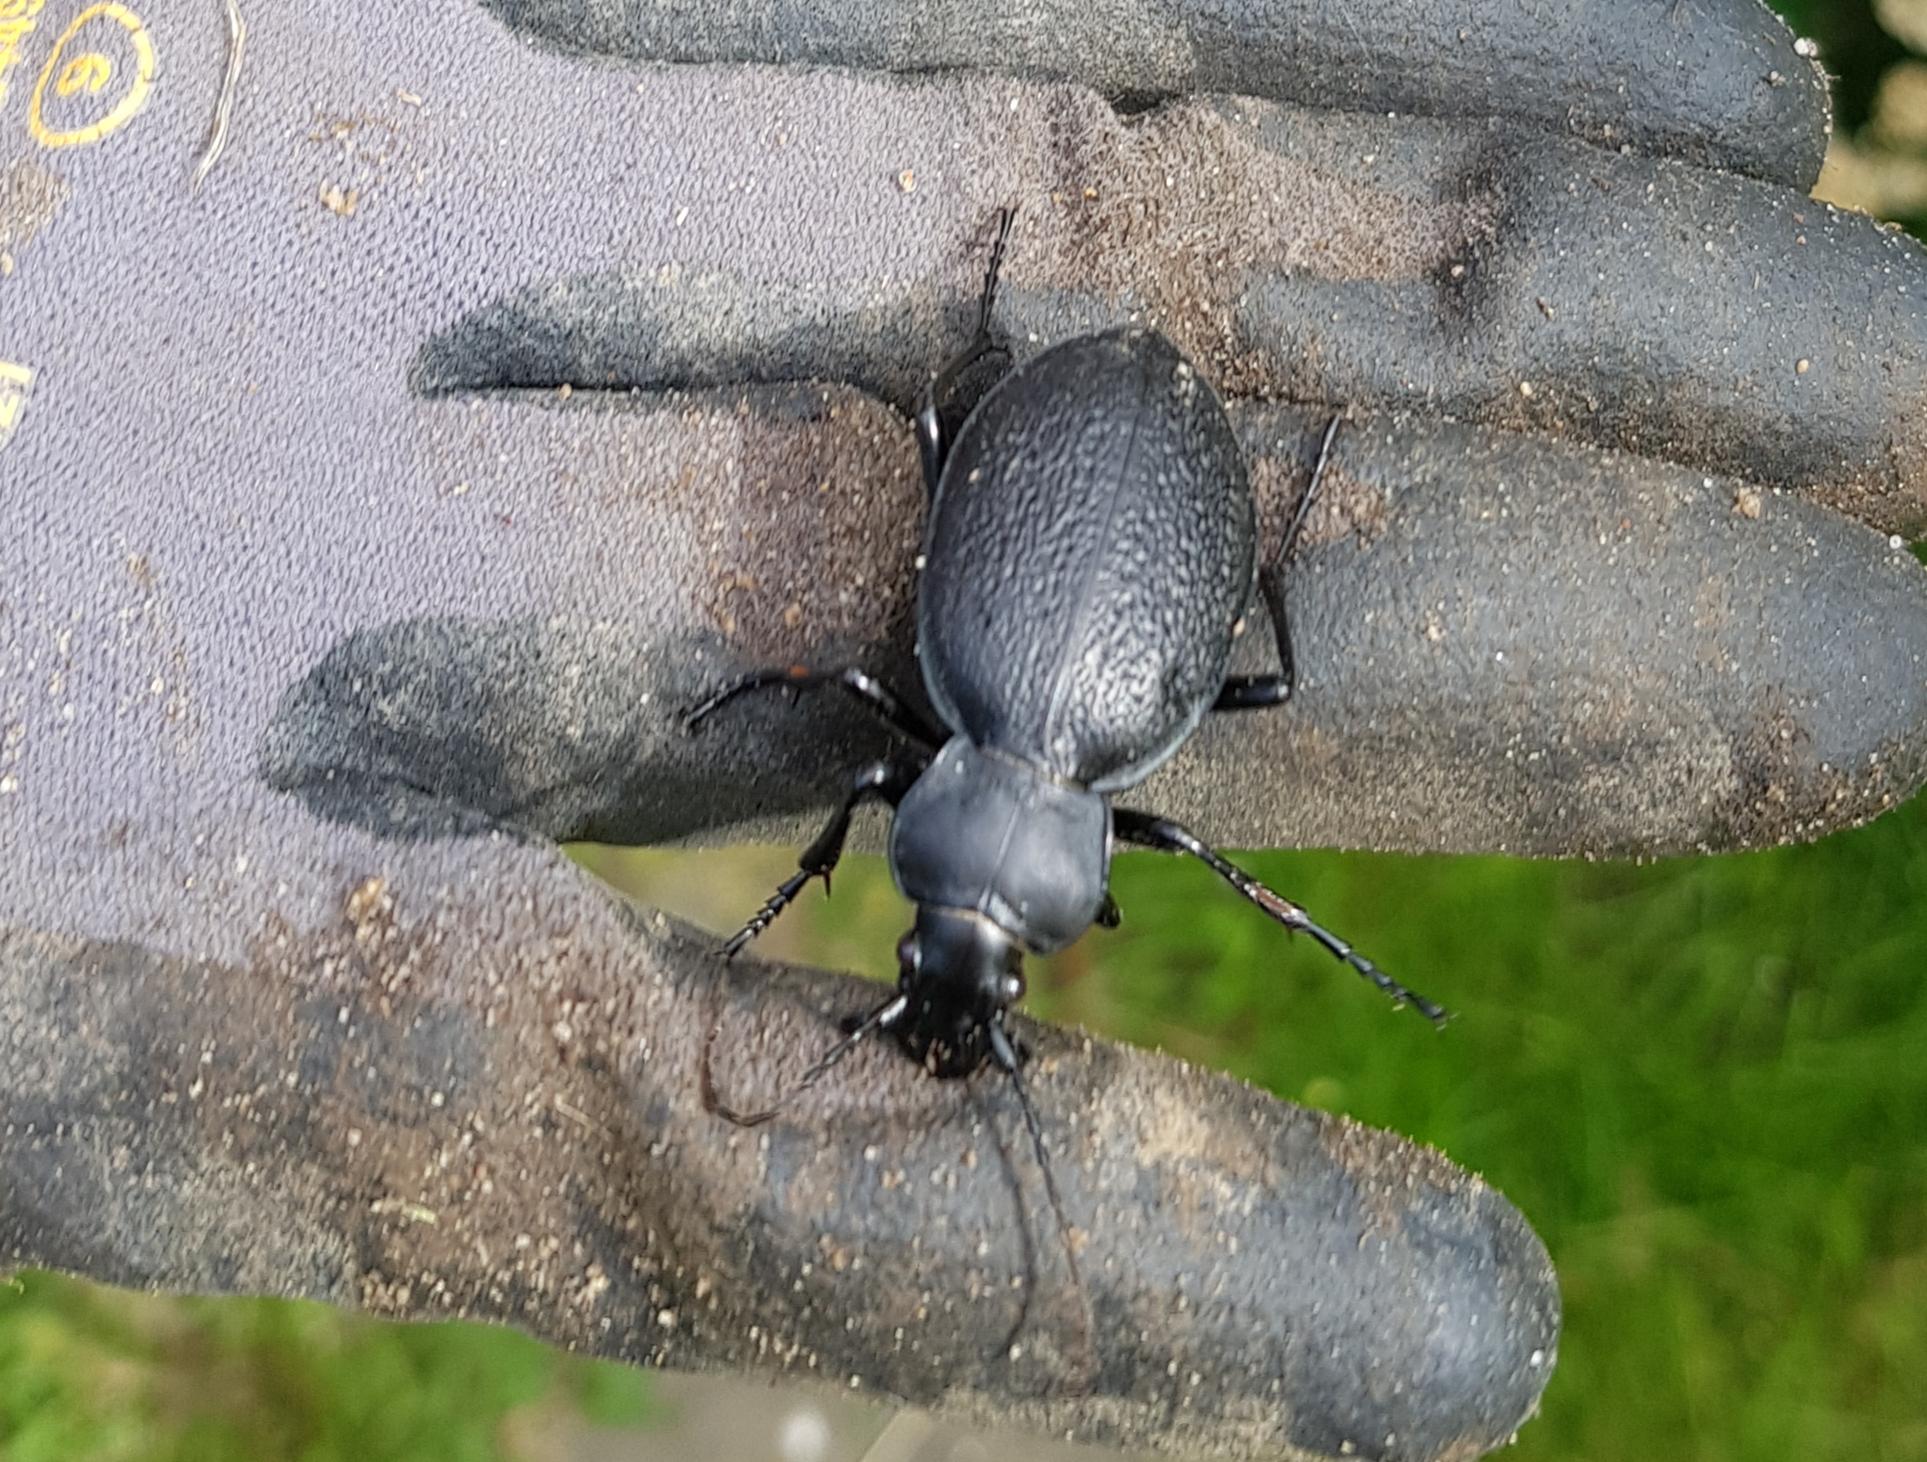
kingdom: Animalia
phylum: Arthropoda
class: Insecta
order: Coleoptera
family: Carabidae
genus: Carabus
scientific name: Carabus coriaceus
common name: Læderløber
